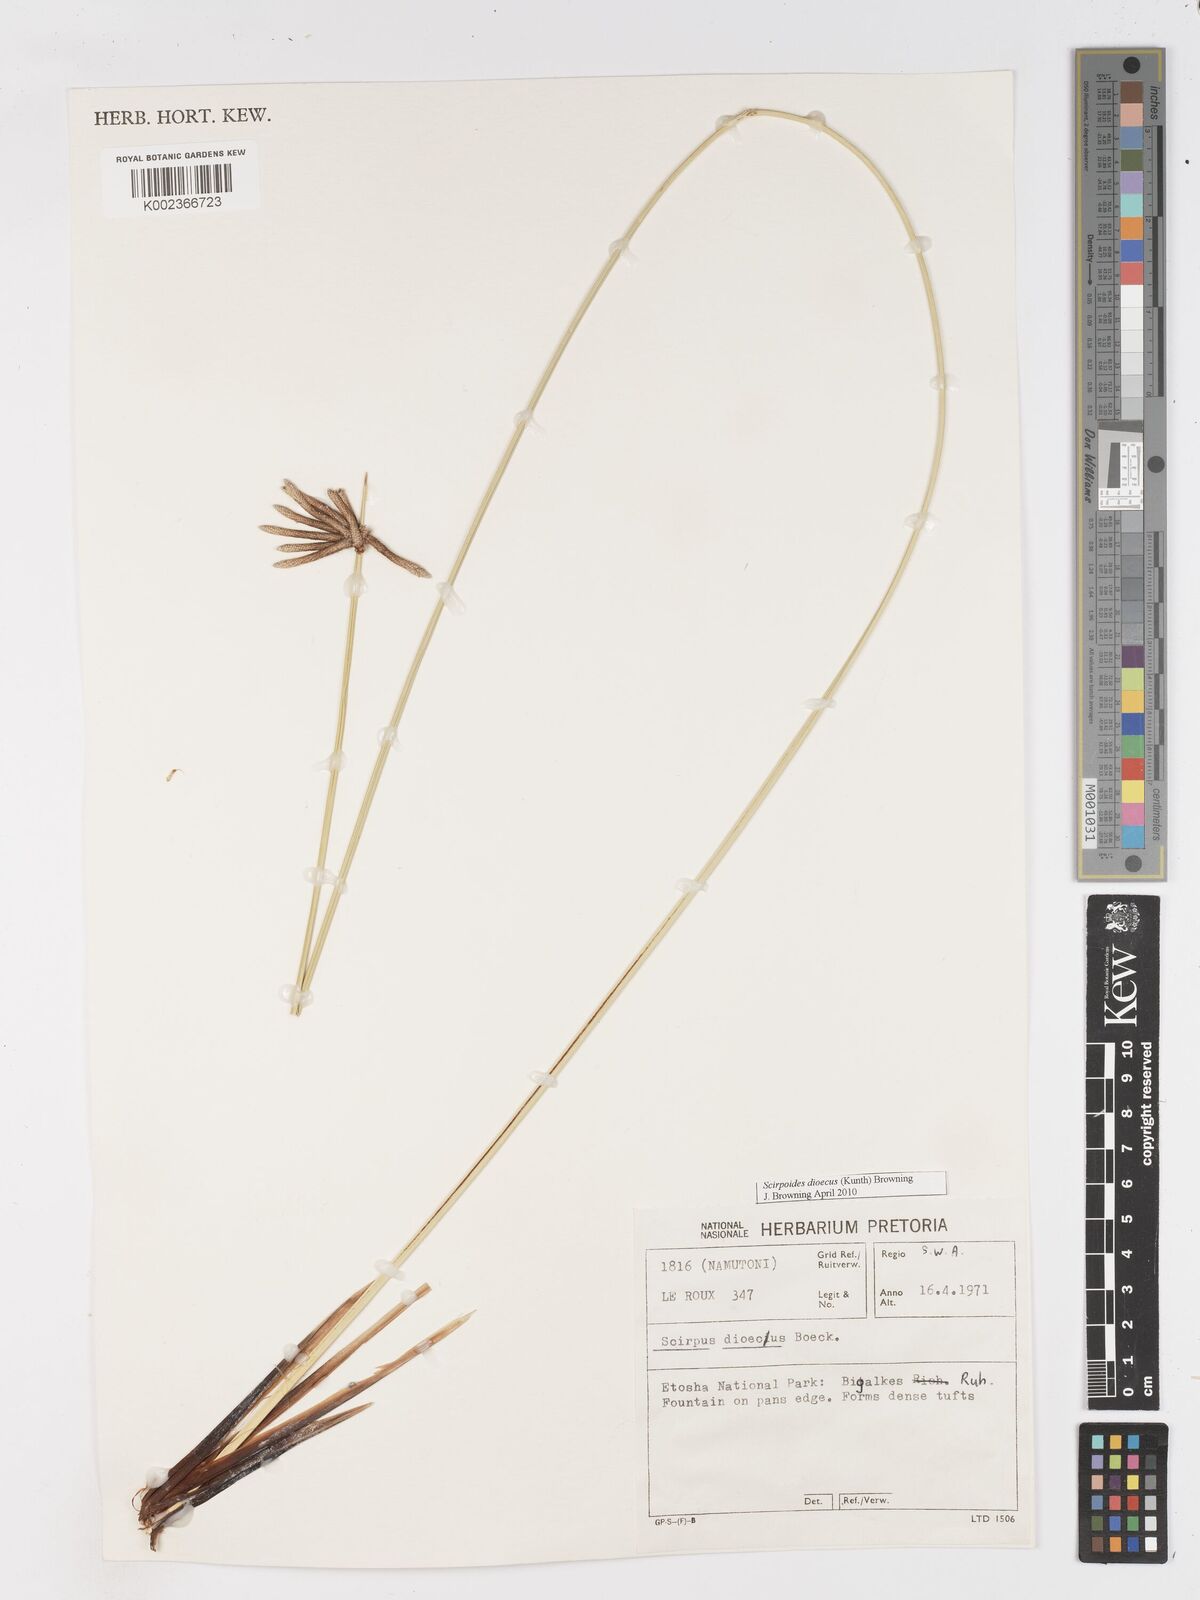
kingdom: Plantae
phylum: Tracheophyta
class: Liliopsida
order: Poales
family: Cyperaceae
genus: Scirpoides
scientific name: Scirpoides
